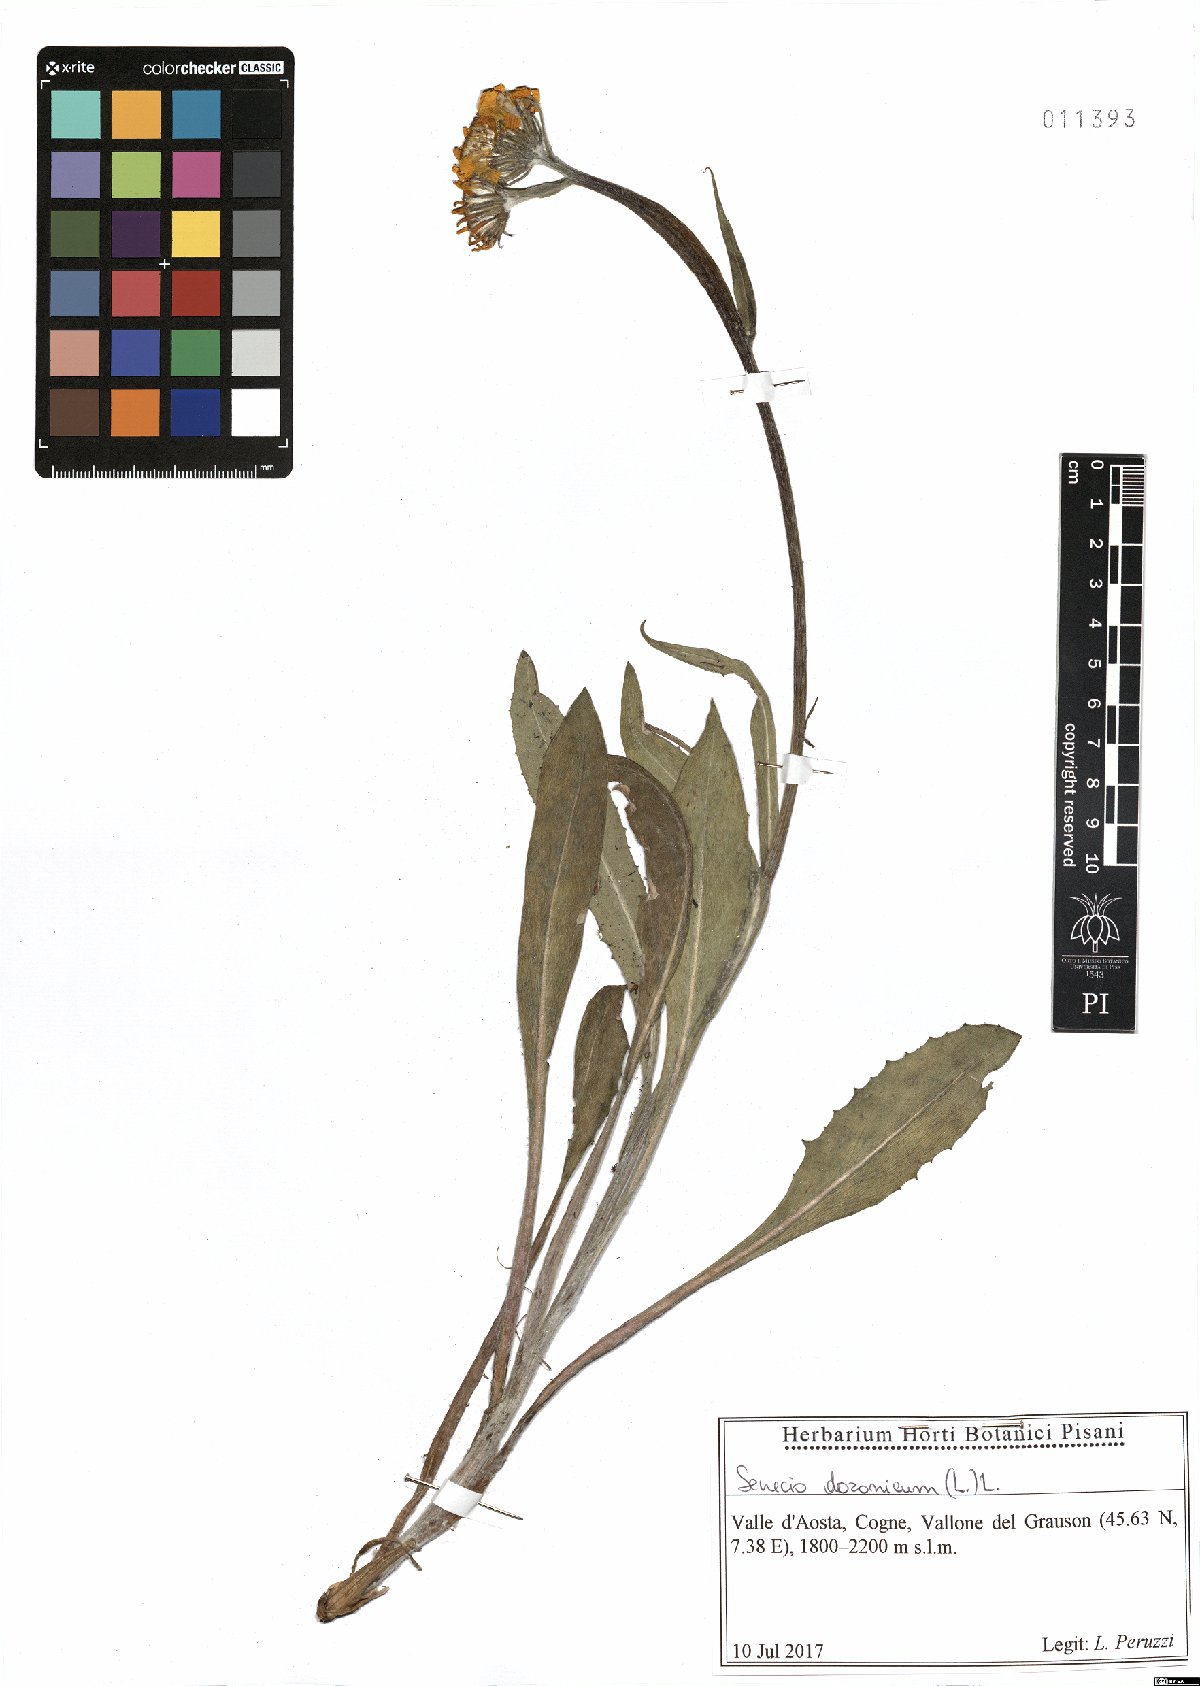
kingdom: Plantae
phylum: Tracheophyta
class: Magnoliopsida
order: Asterales
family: Asteraceae
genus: Senecio
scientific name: Senecio doronicum
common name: Chamois ragwort
